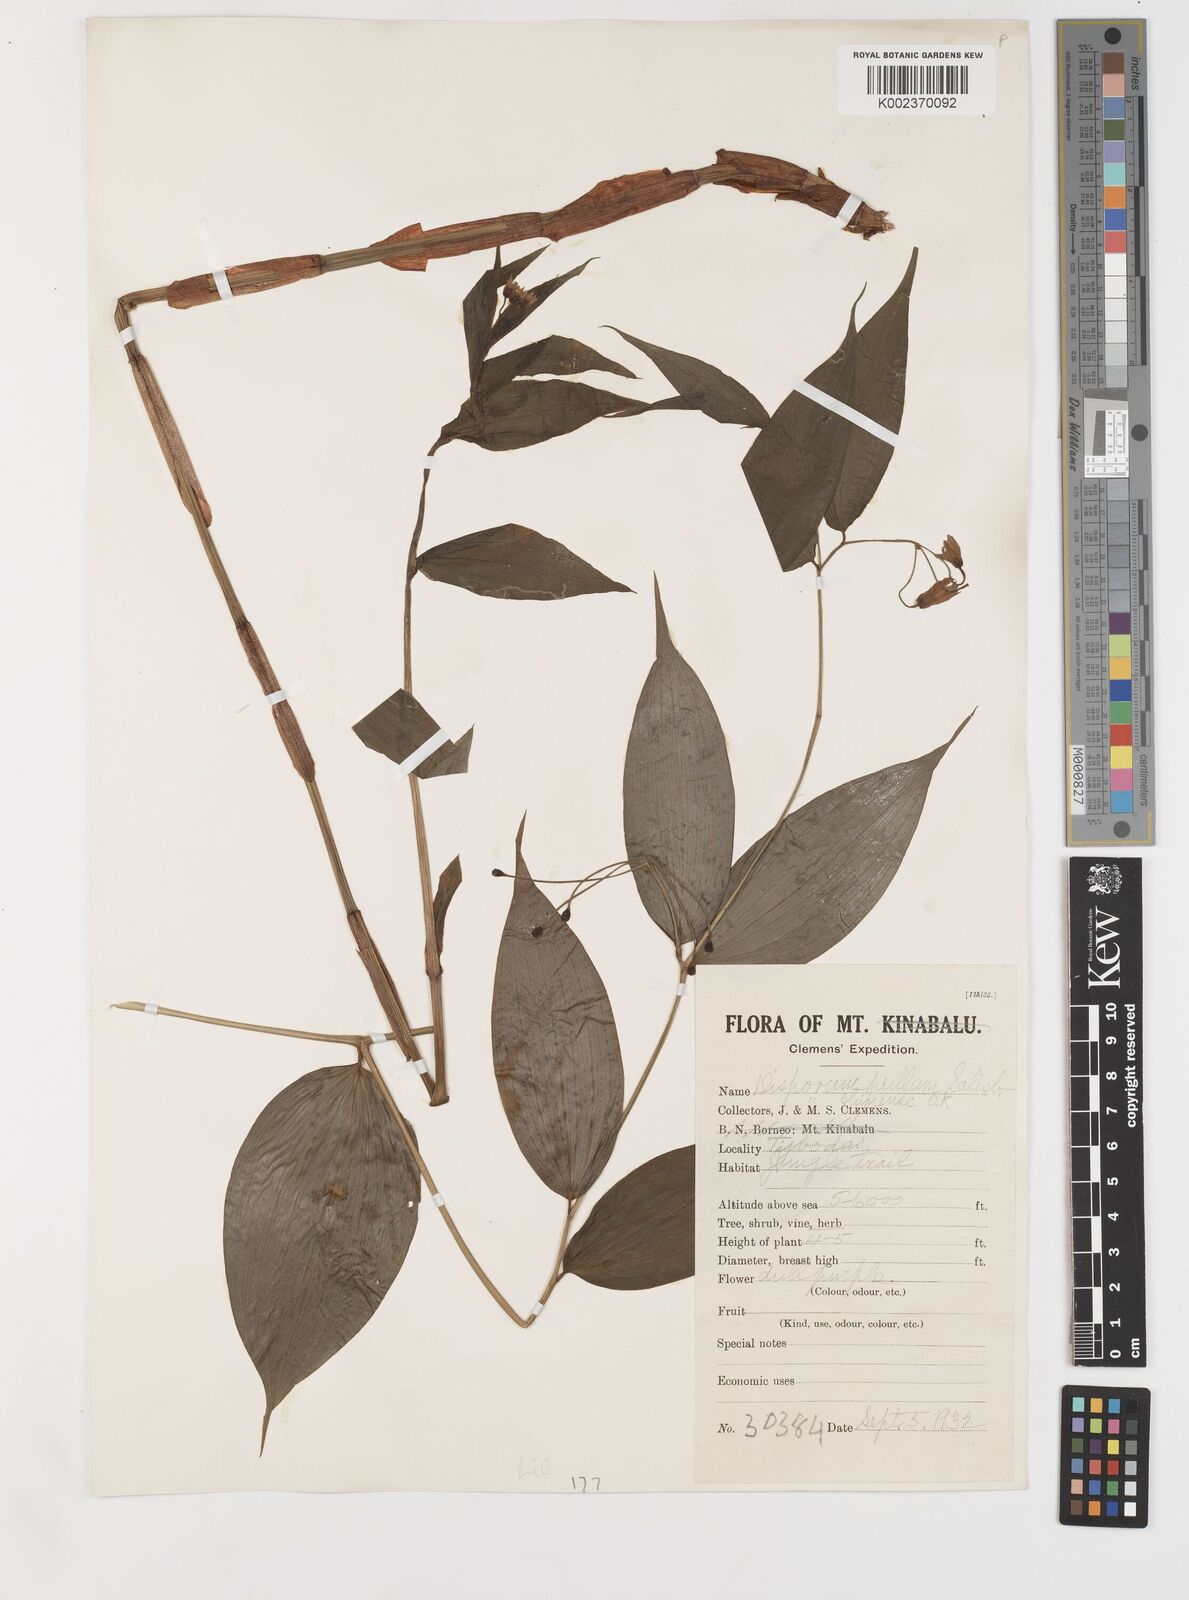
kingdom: Plantae
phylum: Tracheophyta
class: Liliopsida
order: Liliales
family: Colchicaceae
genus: Disporum
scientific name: Disporum cantoniense
